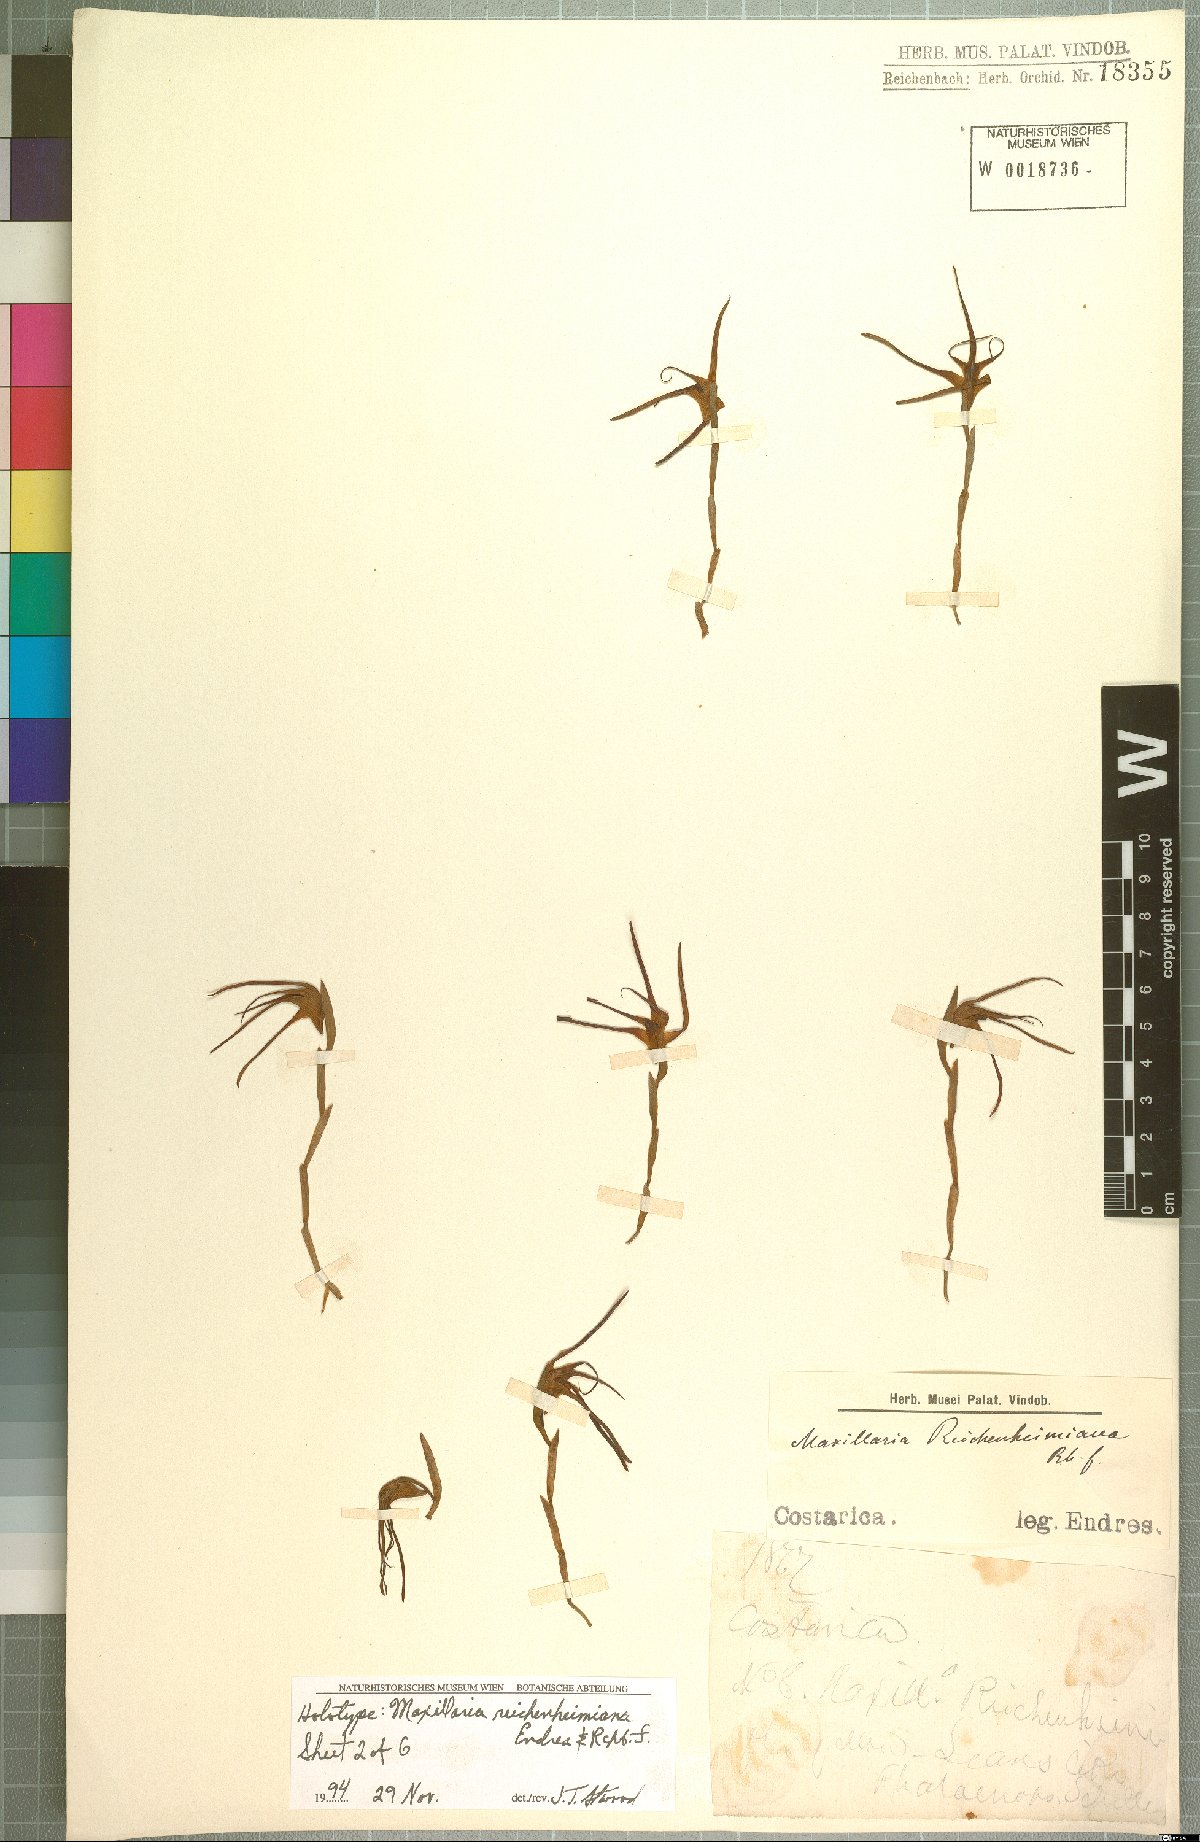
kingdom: Plantae
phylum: Tracheophyta
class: Liliopsida
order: Asparagales
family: Orchidaceae
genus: Maxillaria
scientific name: Maxillaria reichenheimiana
